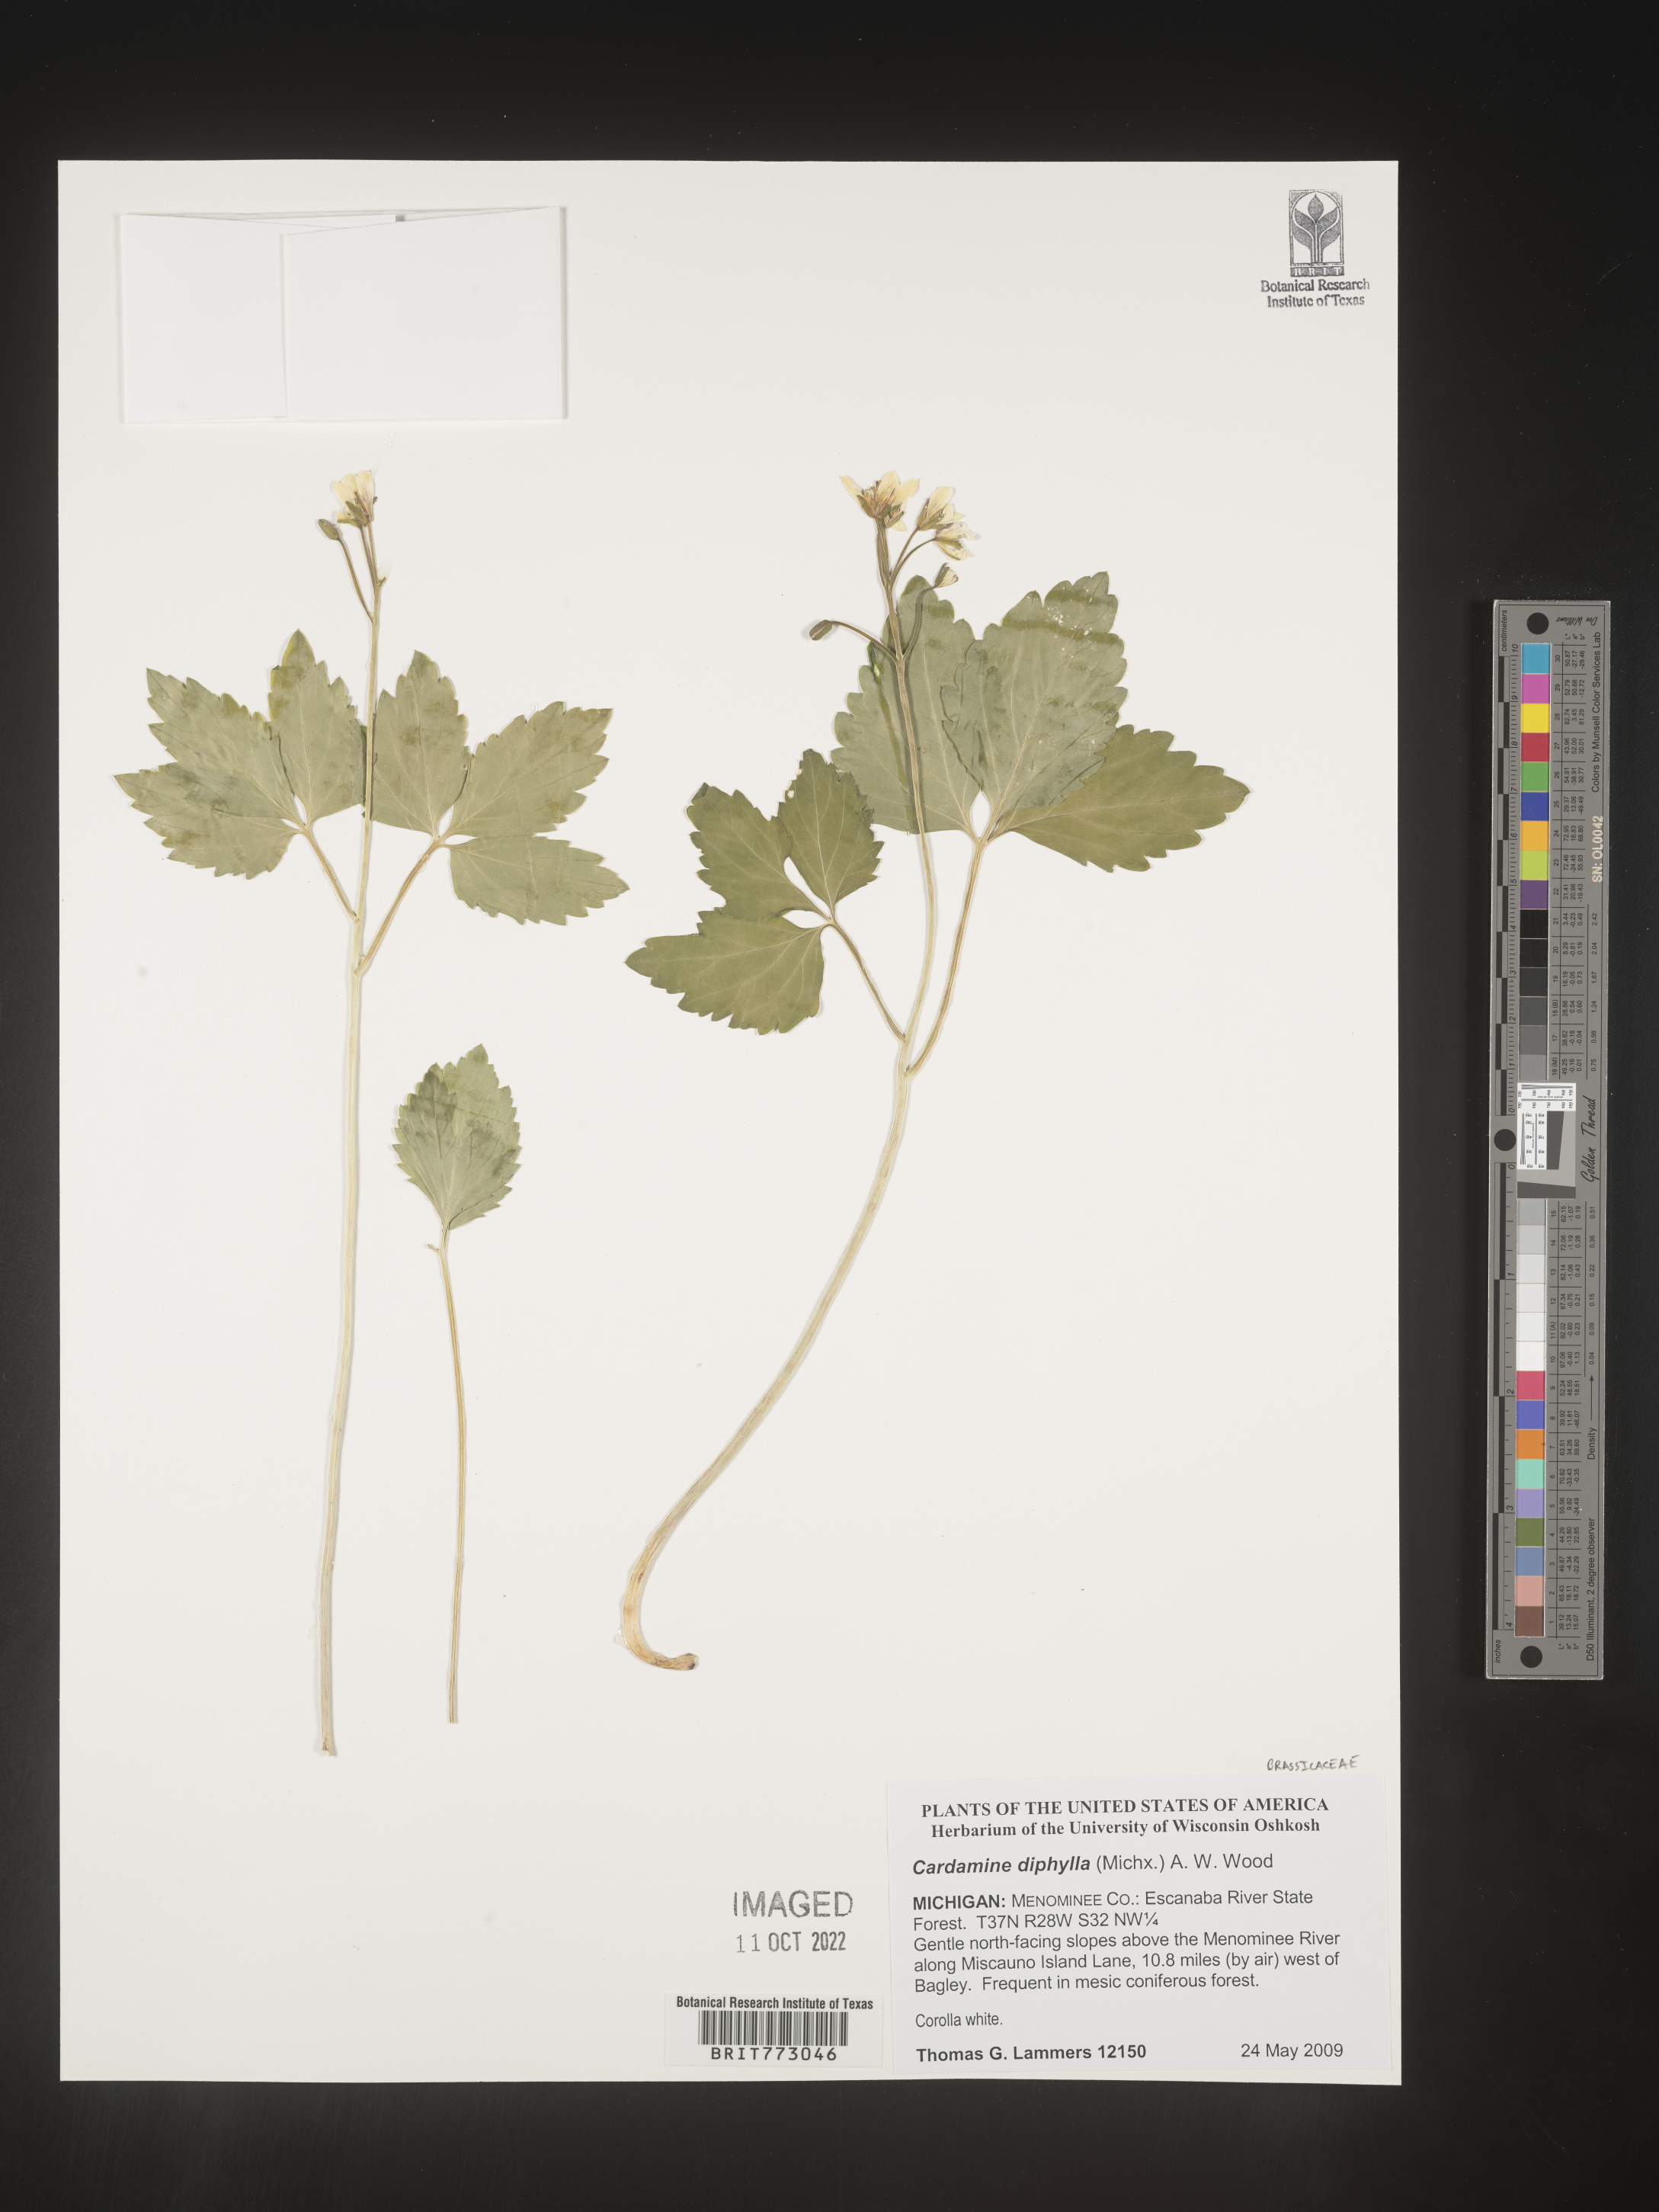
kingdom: Plantae
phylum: Tracheophyta
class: Magnoliopsida
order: Brassicales
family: Brassicaceae
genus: Cardamine
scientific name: Cardamine diphylla
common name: Broad-leaved toothwort
